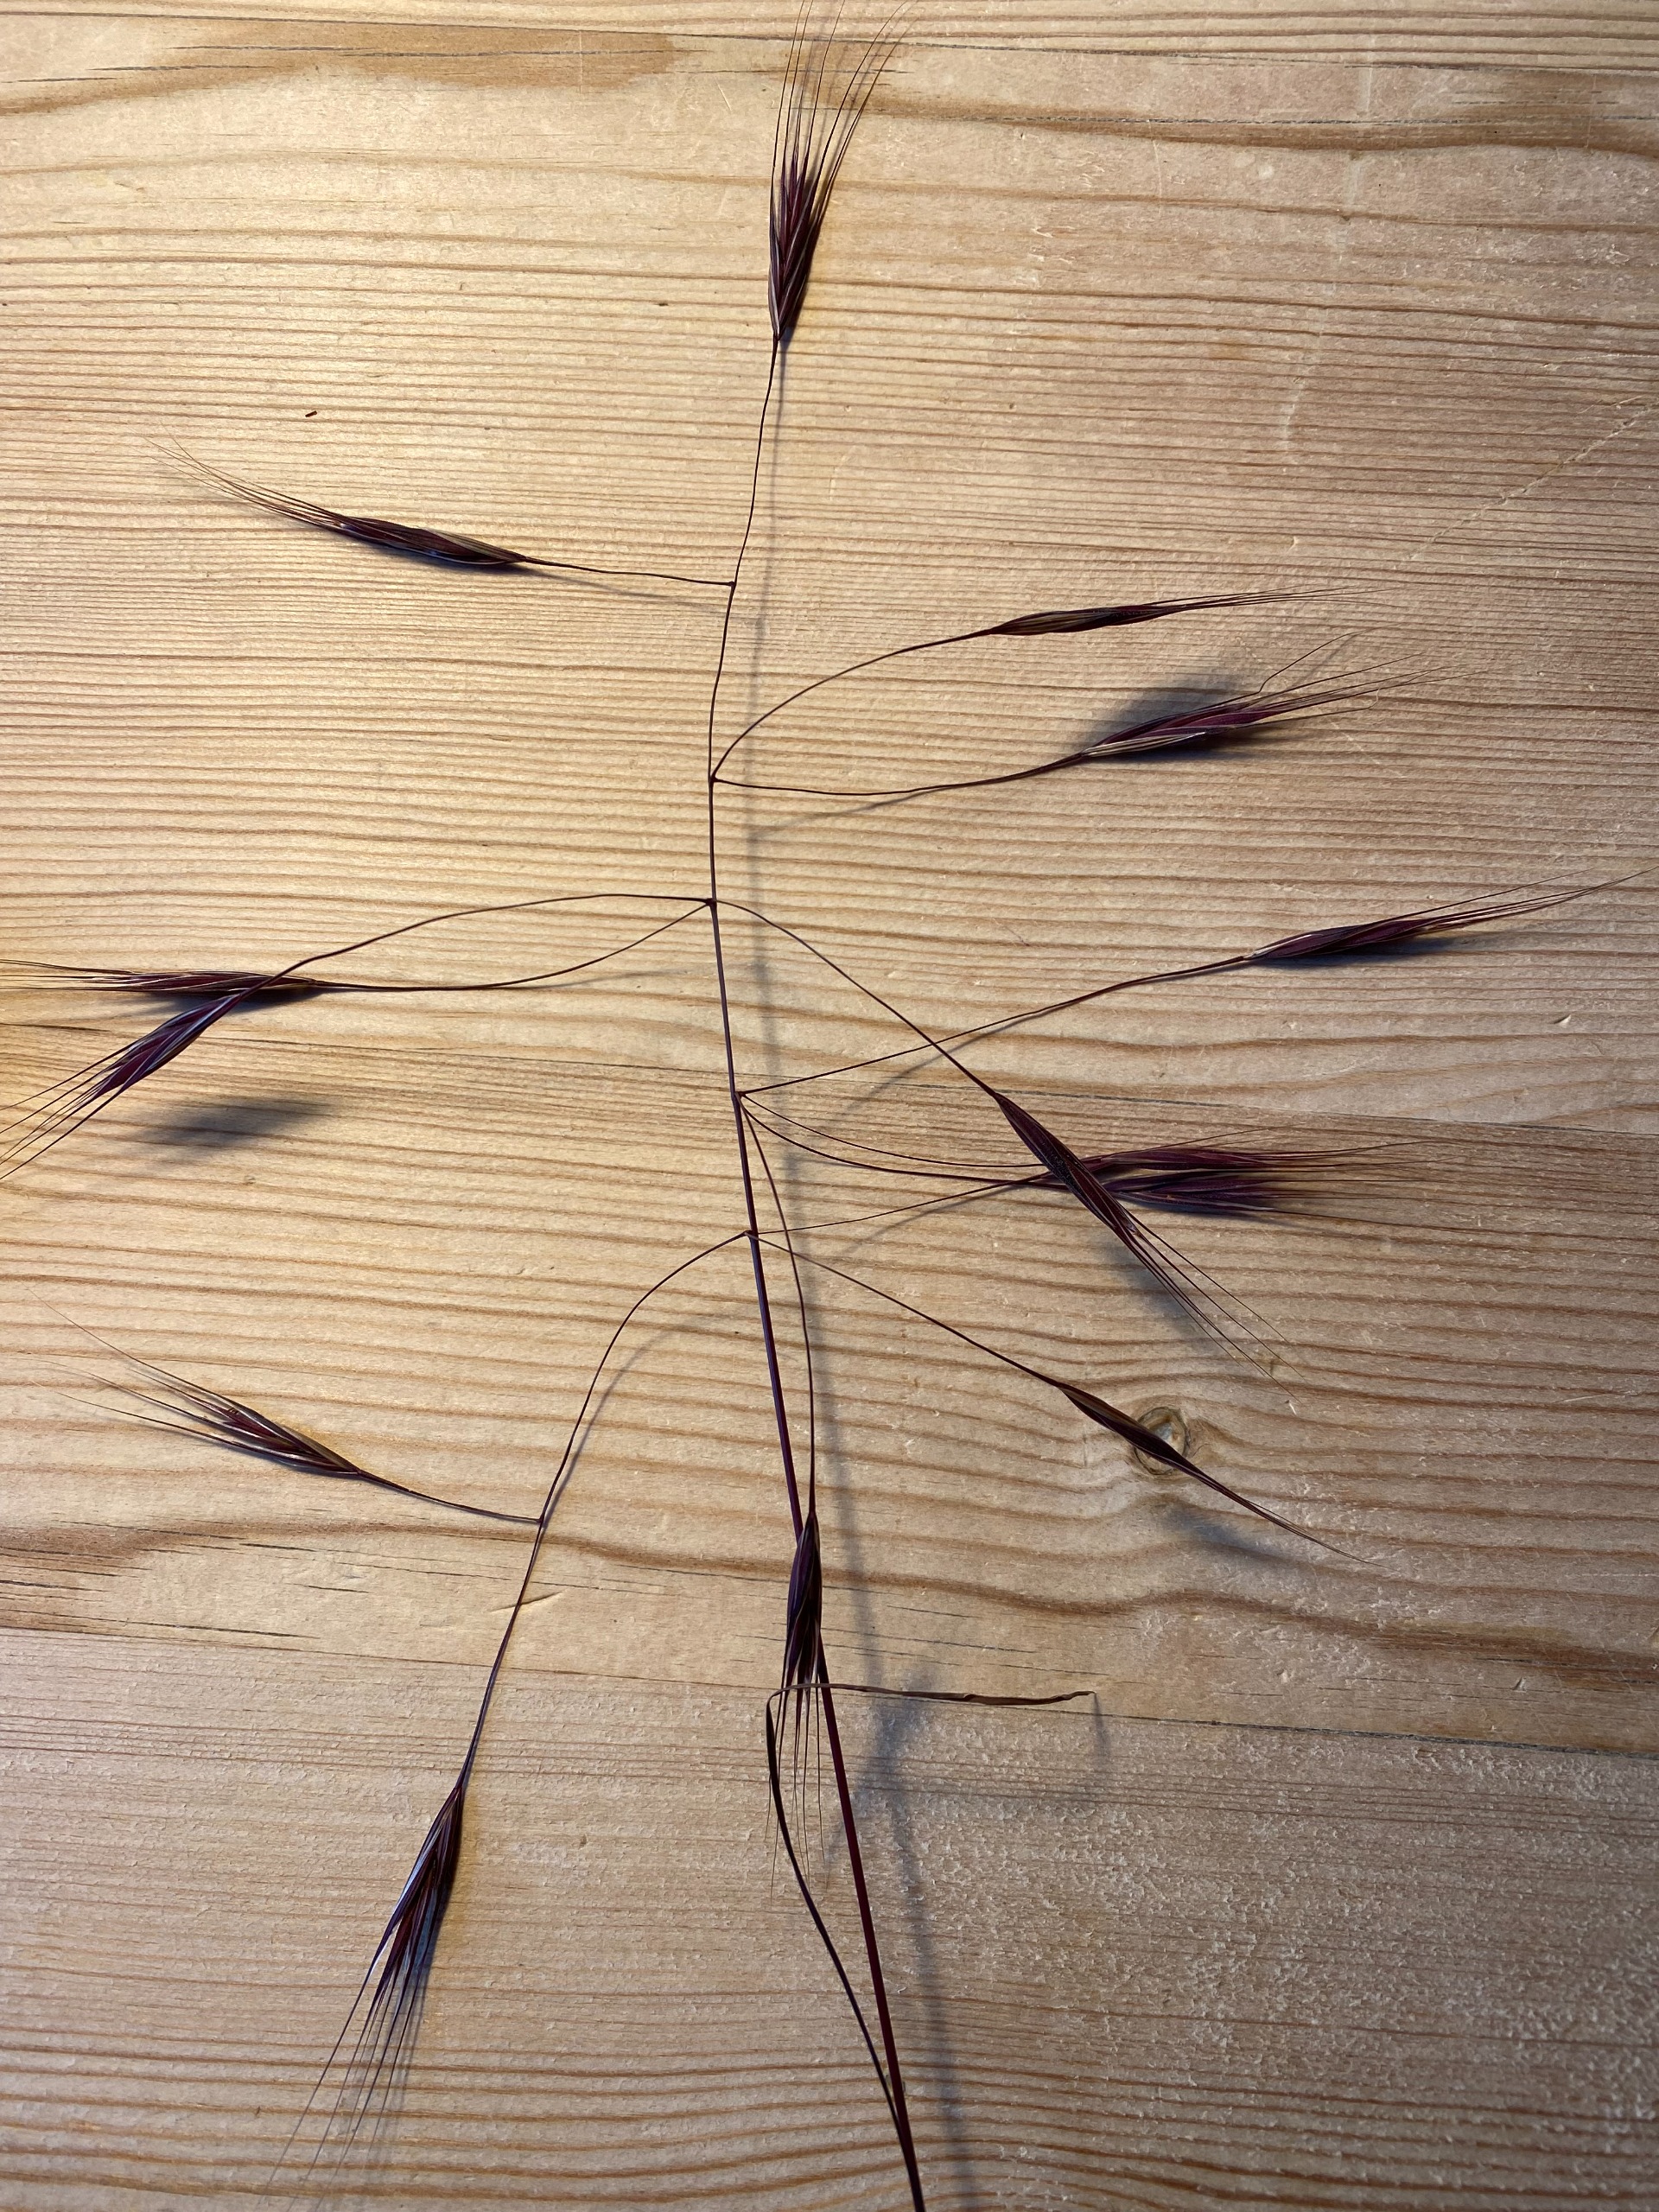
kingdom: Plantae
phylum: Tracheophyta
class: Liliopsida
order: Poales
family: Poaceae
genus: Bromus
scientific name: Bromus sterilis
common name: Gold hejre
